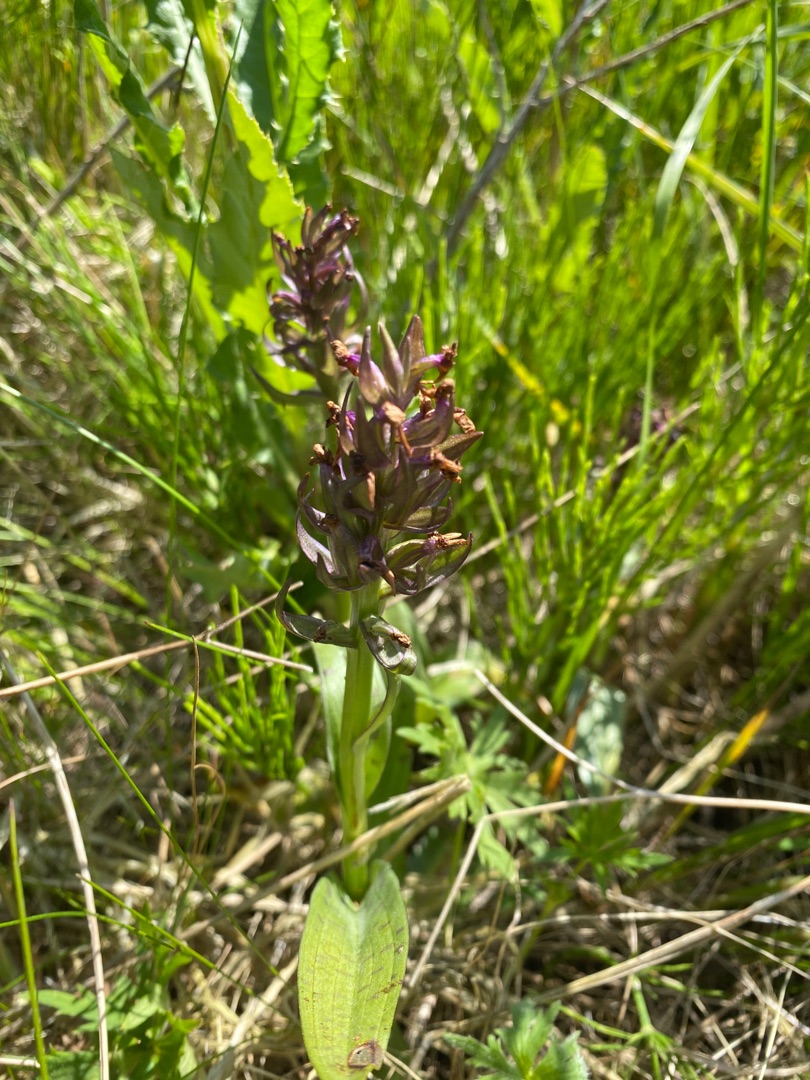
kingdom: Plantae
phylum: Tracheophyta
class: Liliopsida
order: Asparagales
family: Orchidaceae
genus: Dactylorhiza
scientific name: Dactylorhiza majalis
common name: Maj-gøgeurt
